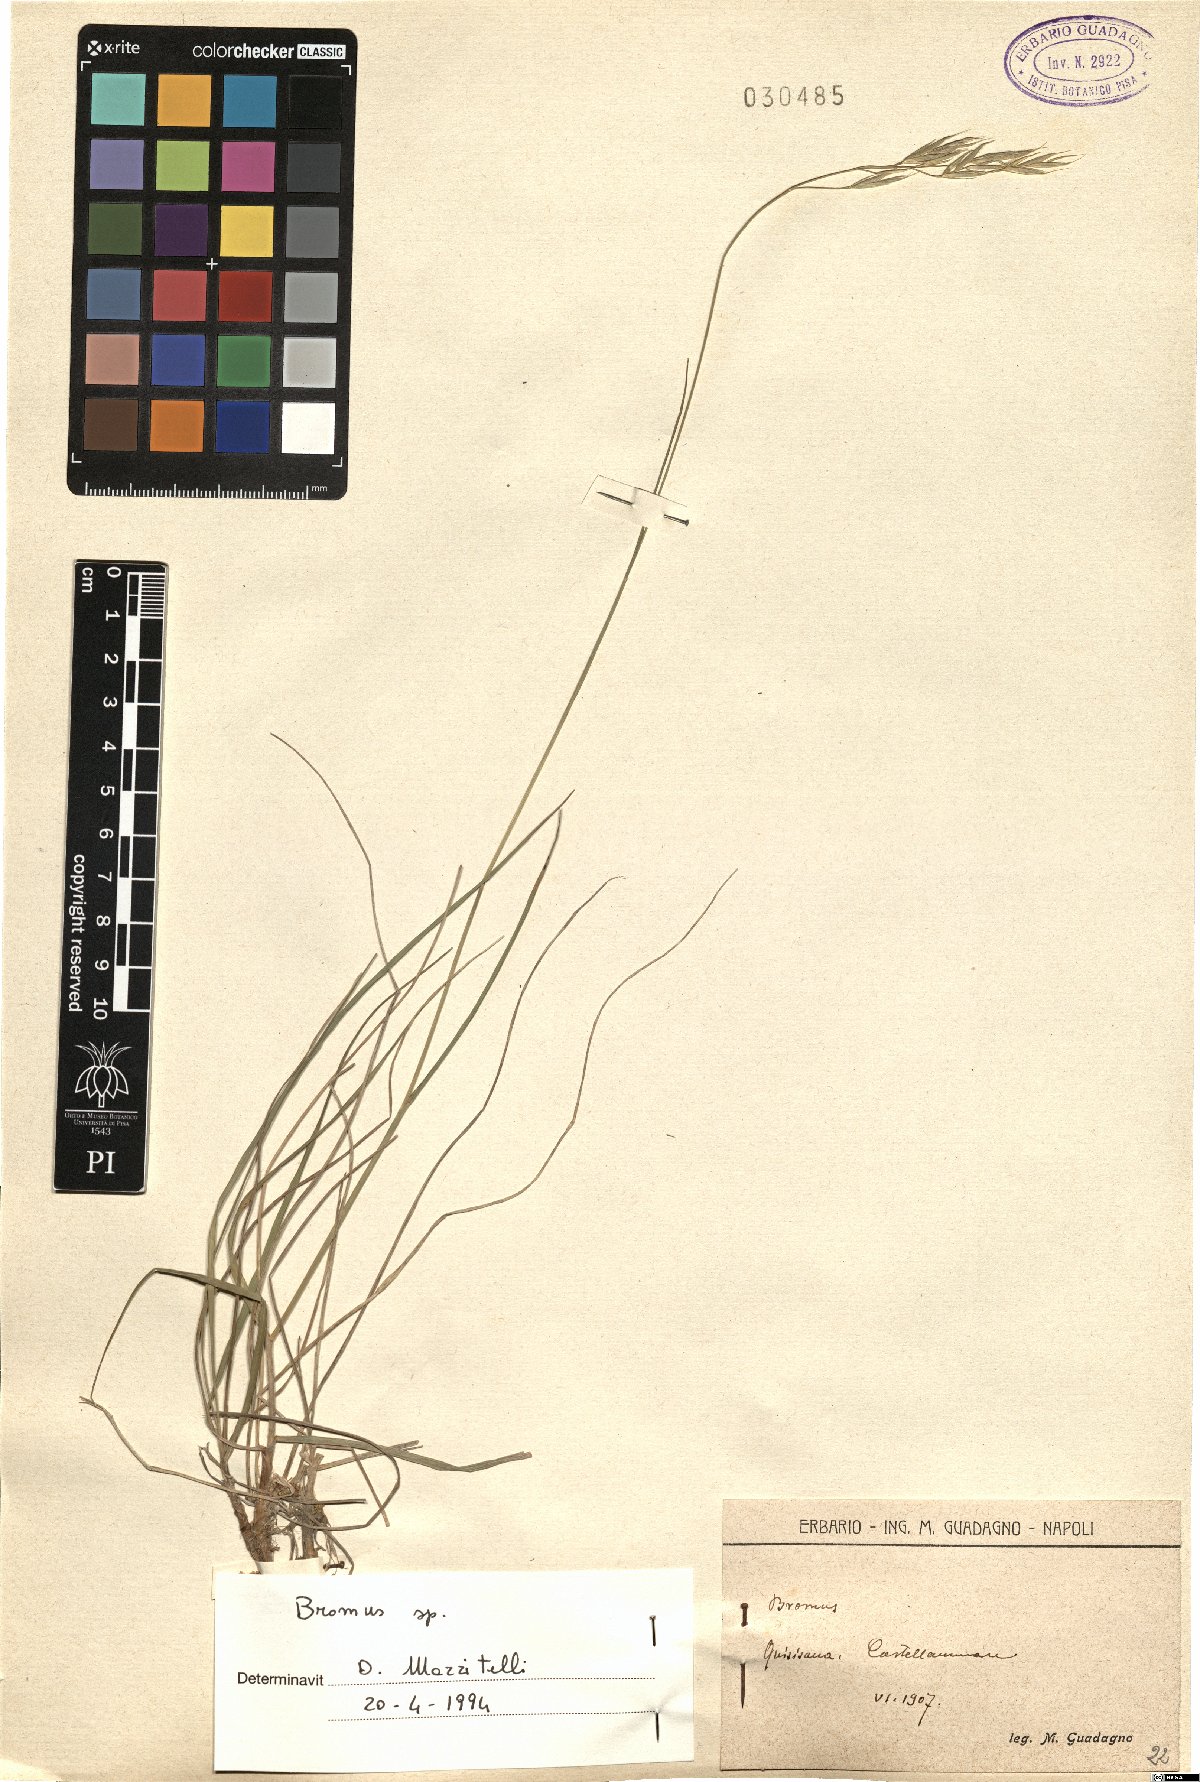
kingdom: Plantae
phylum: Tracheophyta
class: Liliopsida
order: Poales
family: Poaceae
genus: Bromus
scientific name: Bromus
